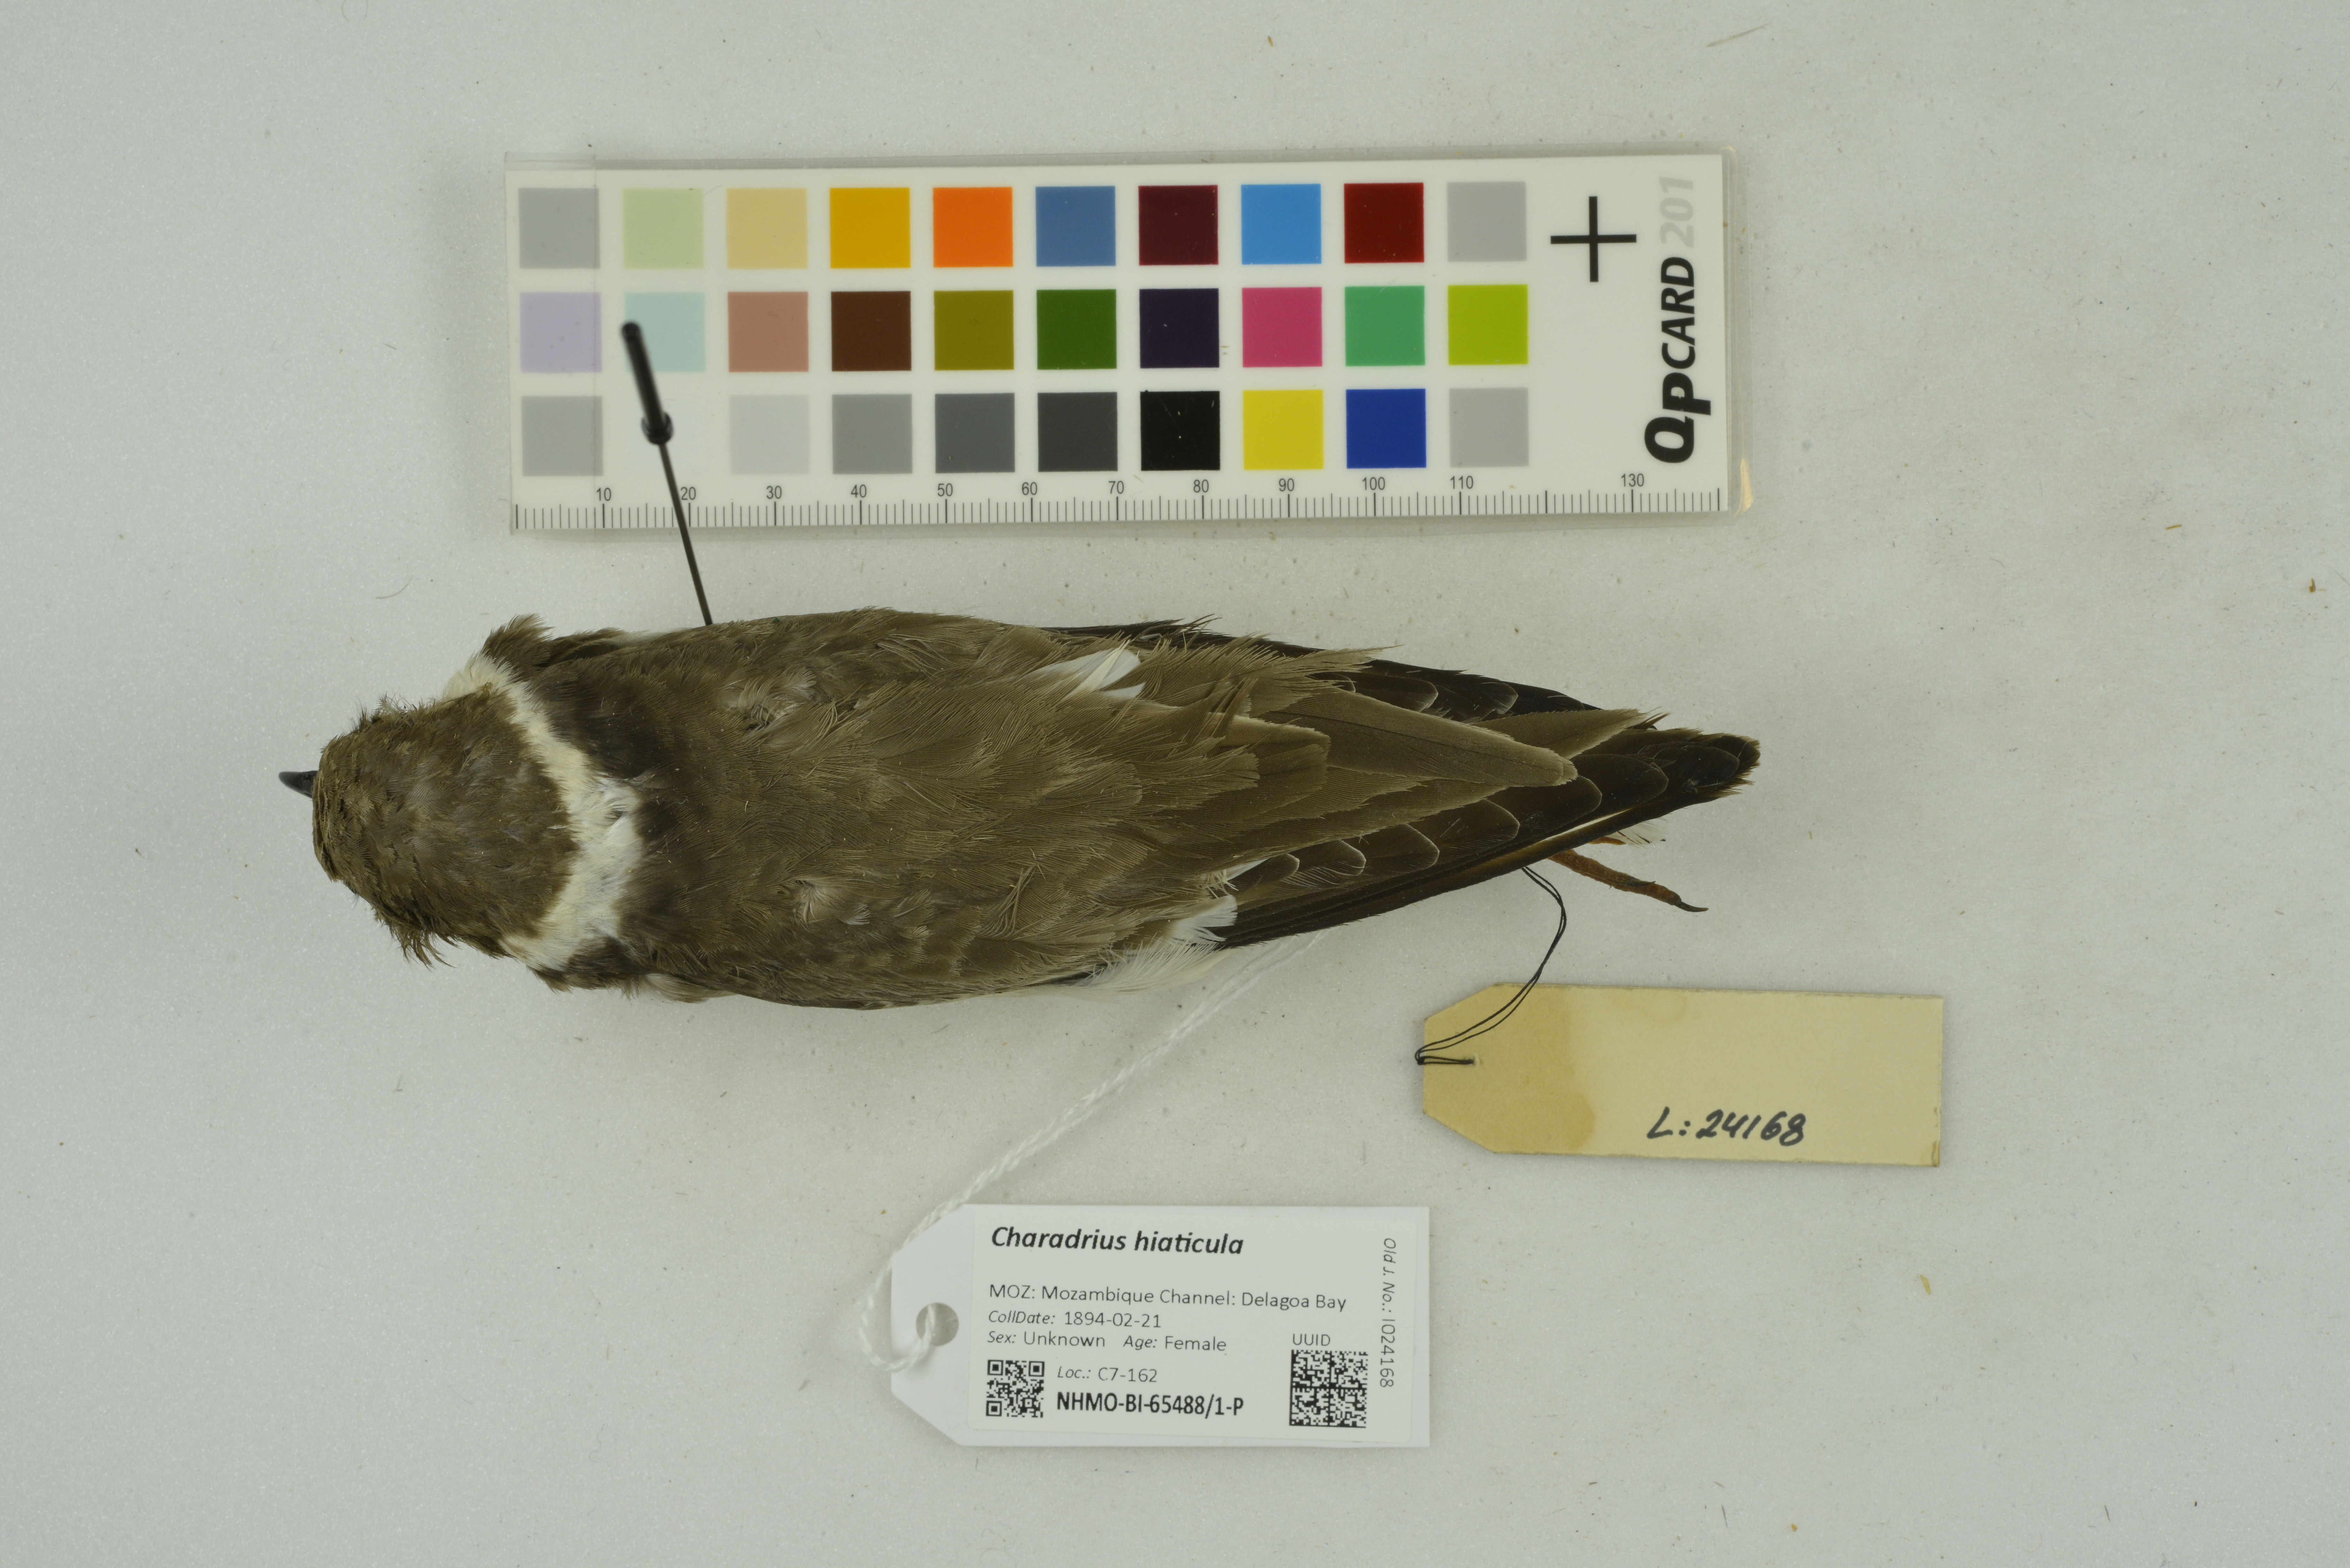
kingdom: Animalia
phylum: Chordata
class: Aves
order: Charadriiformes
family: Charadriidae
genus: Charadrius
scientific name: Charadrius hiaticula
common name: Common ringed plover
